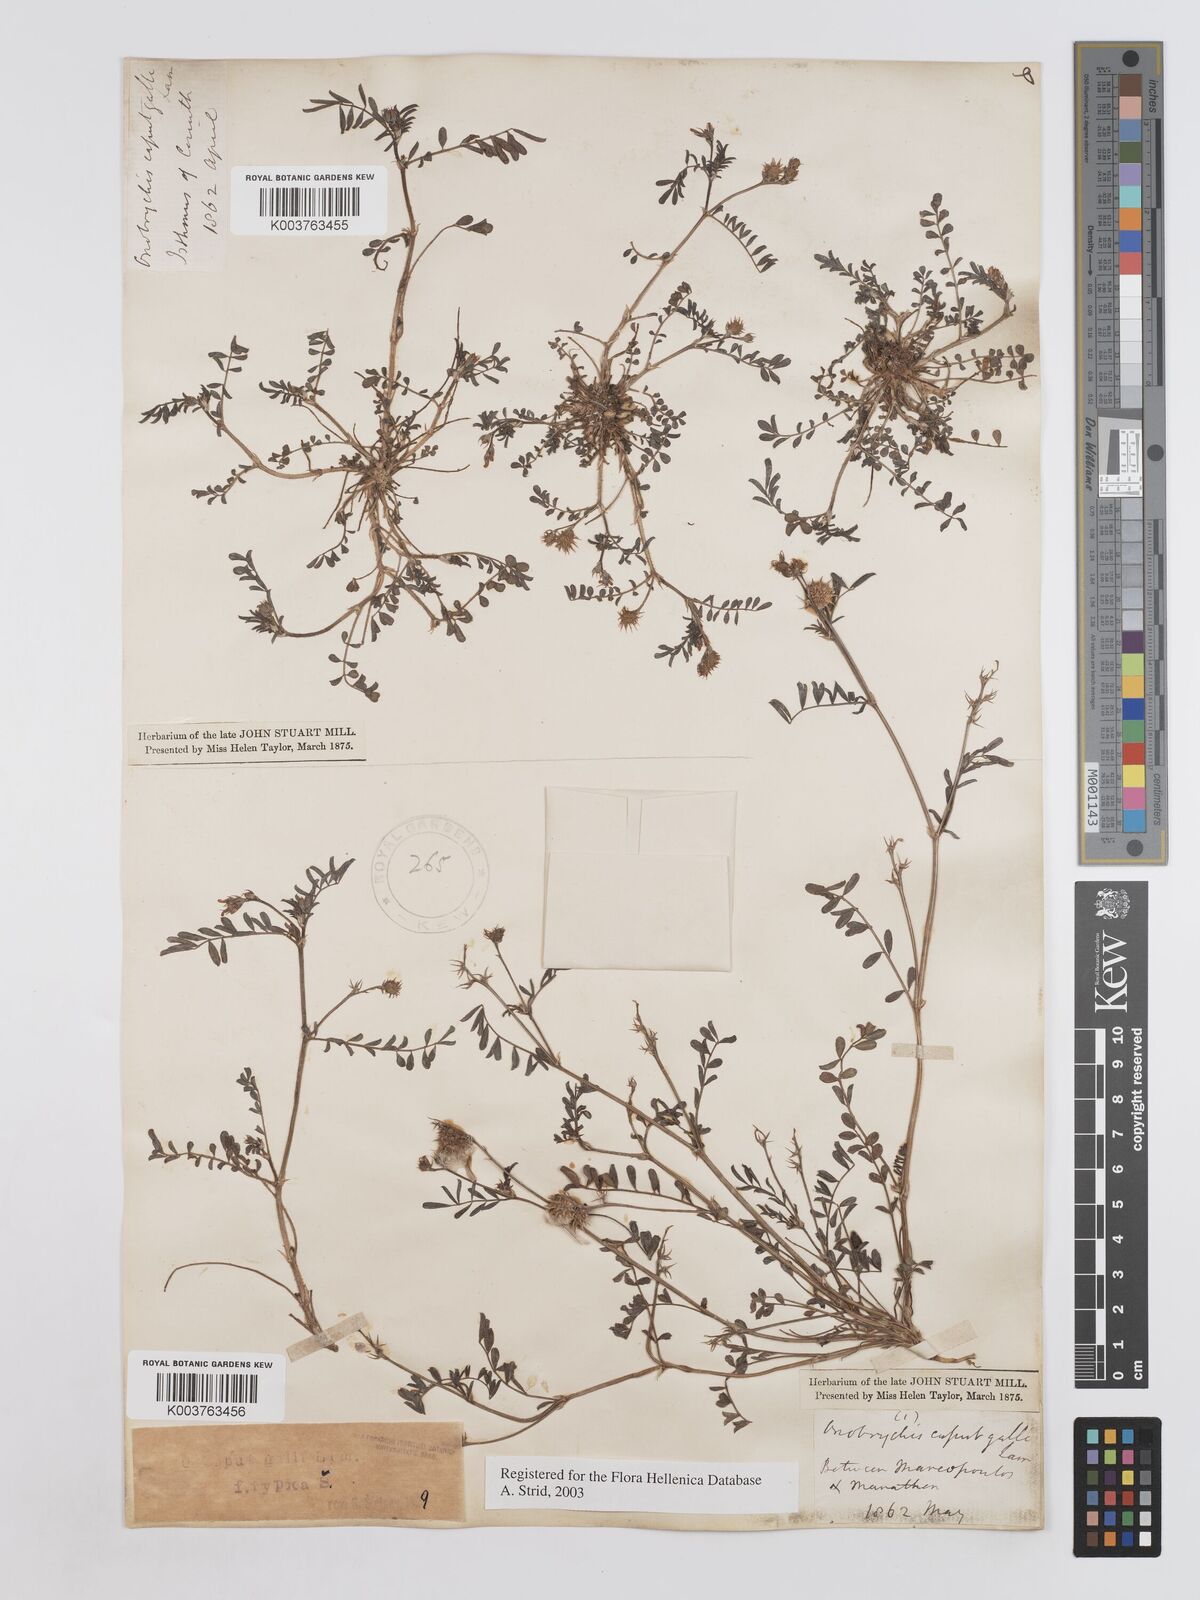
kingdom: Plantae
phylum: Tracheophyta
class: Magnoliopsida
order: Fabales
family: Fabaceae
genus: Onobrychis
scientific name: Onobrychis caput-galli
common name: Cockscomb sainfoin
